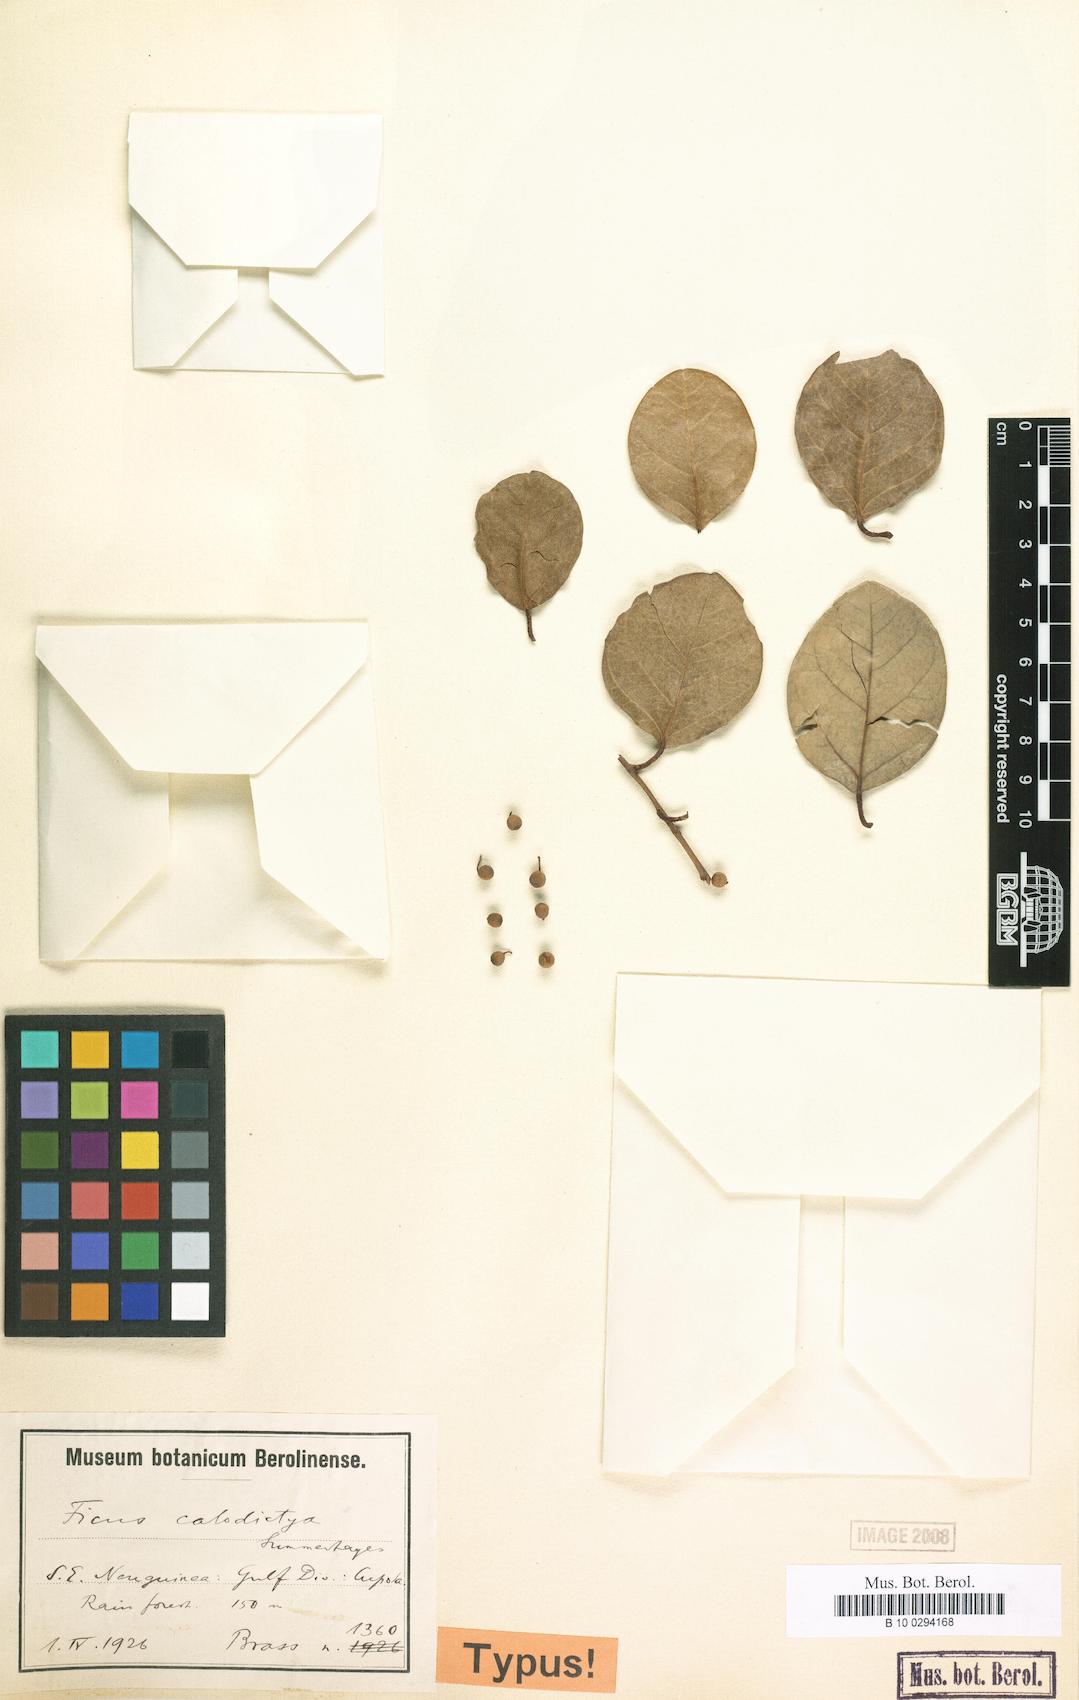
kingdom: Plantae
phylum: Tracheophyta
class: Magnoliopsida
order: Rosales
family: Moraceae
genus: Ficus
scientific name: Ficus disticha
